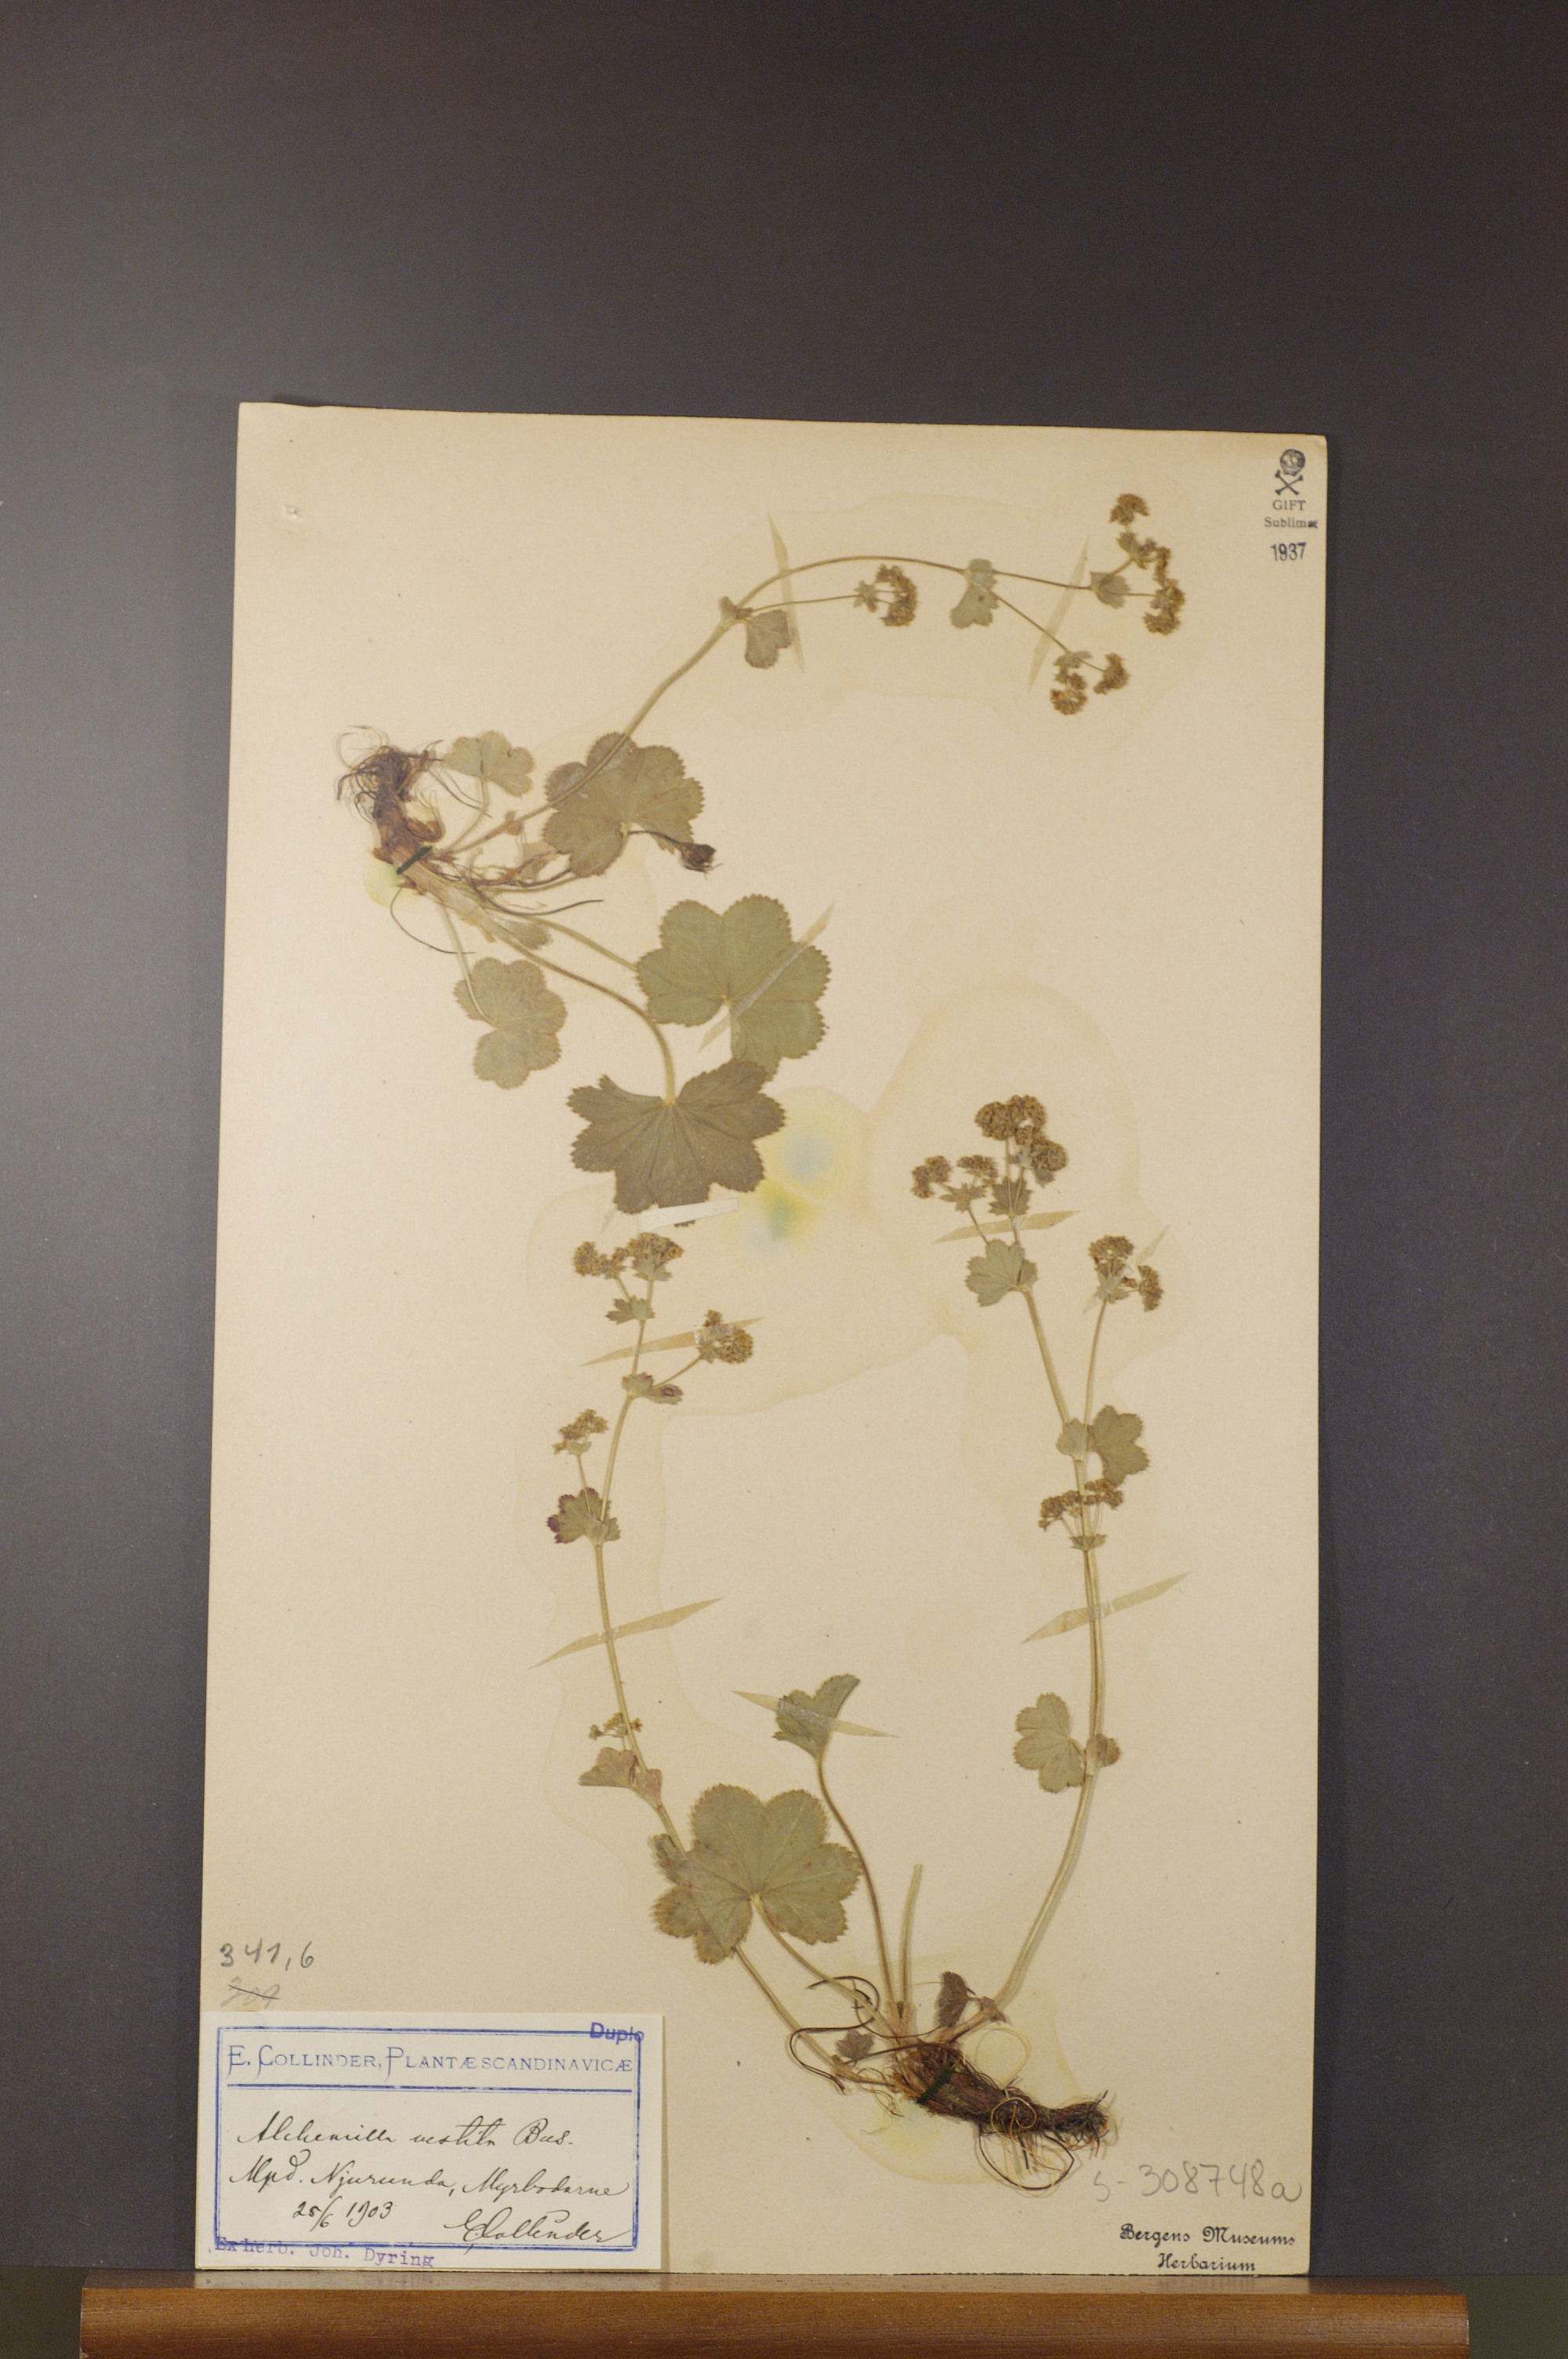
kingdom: Plantae
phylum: Tracheophyta
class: Magnoliopsida
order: Rosales
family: Rosaceae
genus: Alchemilla
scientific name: Alchemilla filicaulis
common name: Hairy lady's-mantle
